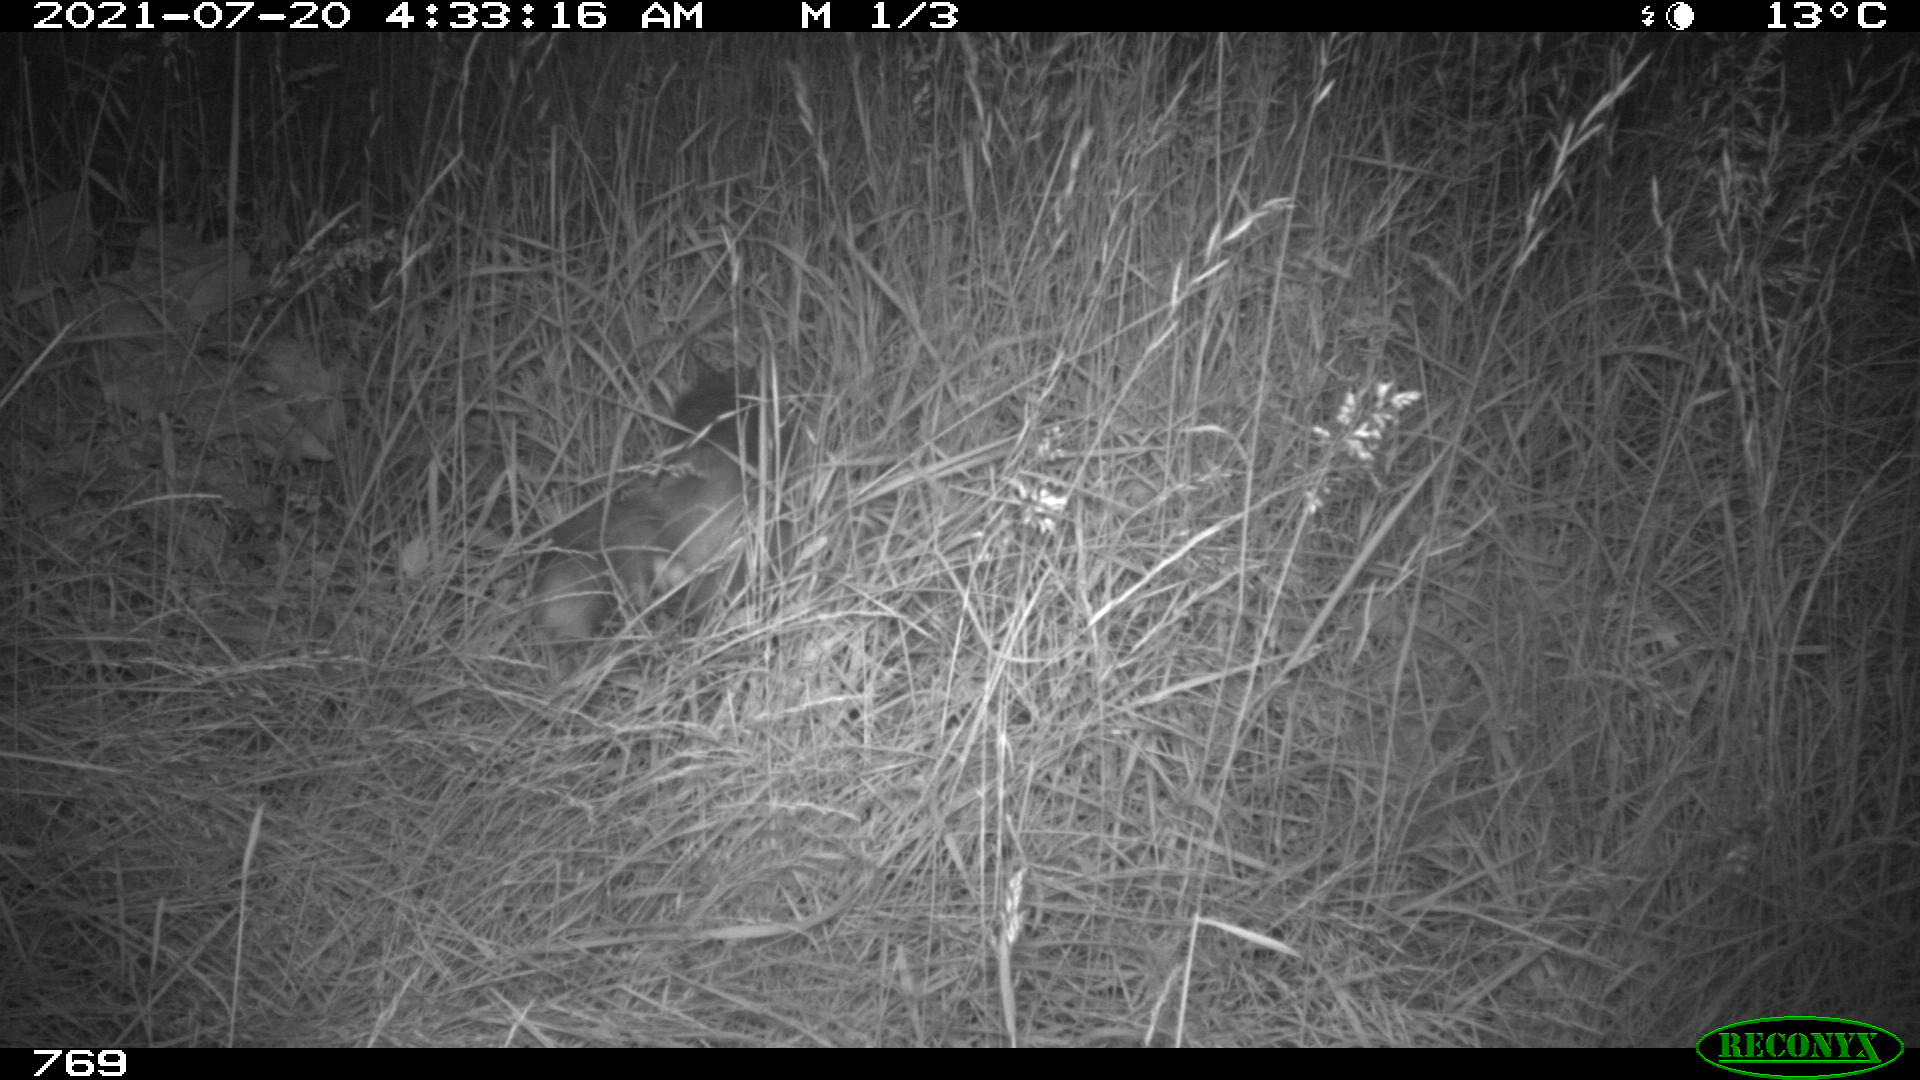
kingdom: Animalia
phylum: Chordata
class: Mammalia
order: Carnivora
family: Canidae
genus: Vulpes
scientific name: Vulpes vulpes
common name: Red fox
